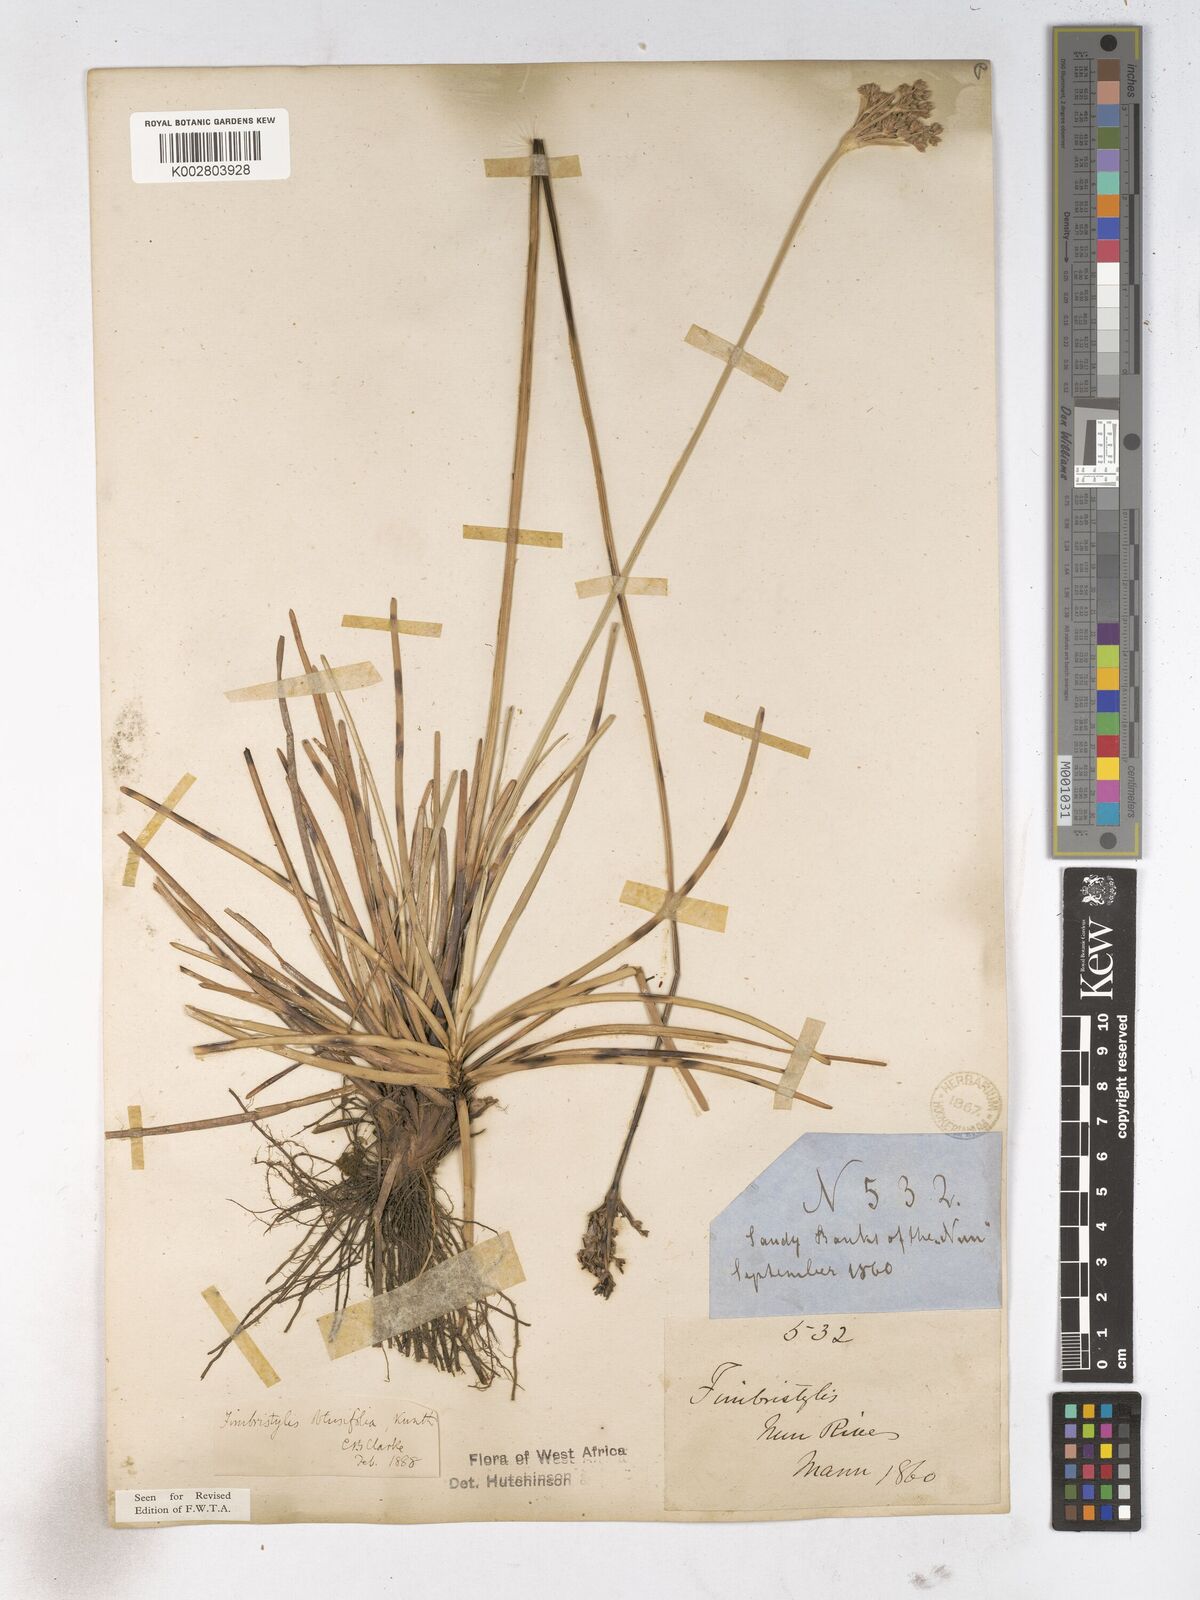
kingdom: Plantae
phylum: Tracheophyta
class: Liliopsida
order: Poales
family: Cyperaceae
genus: Fimbristylis
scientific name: Fimbristylis cymosa
